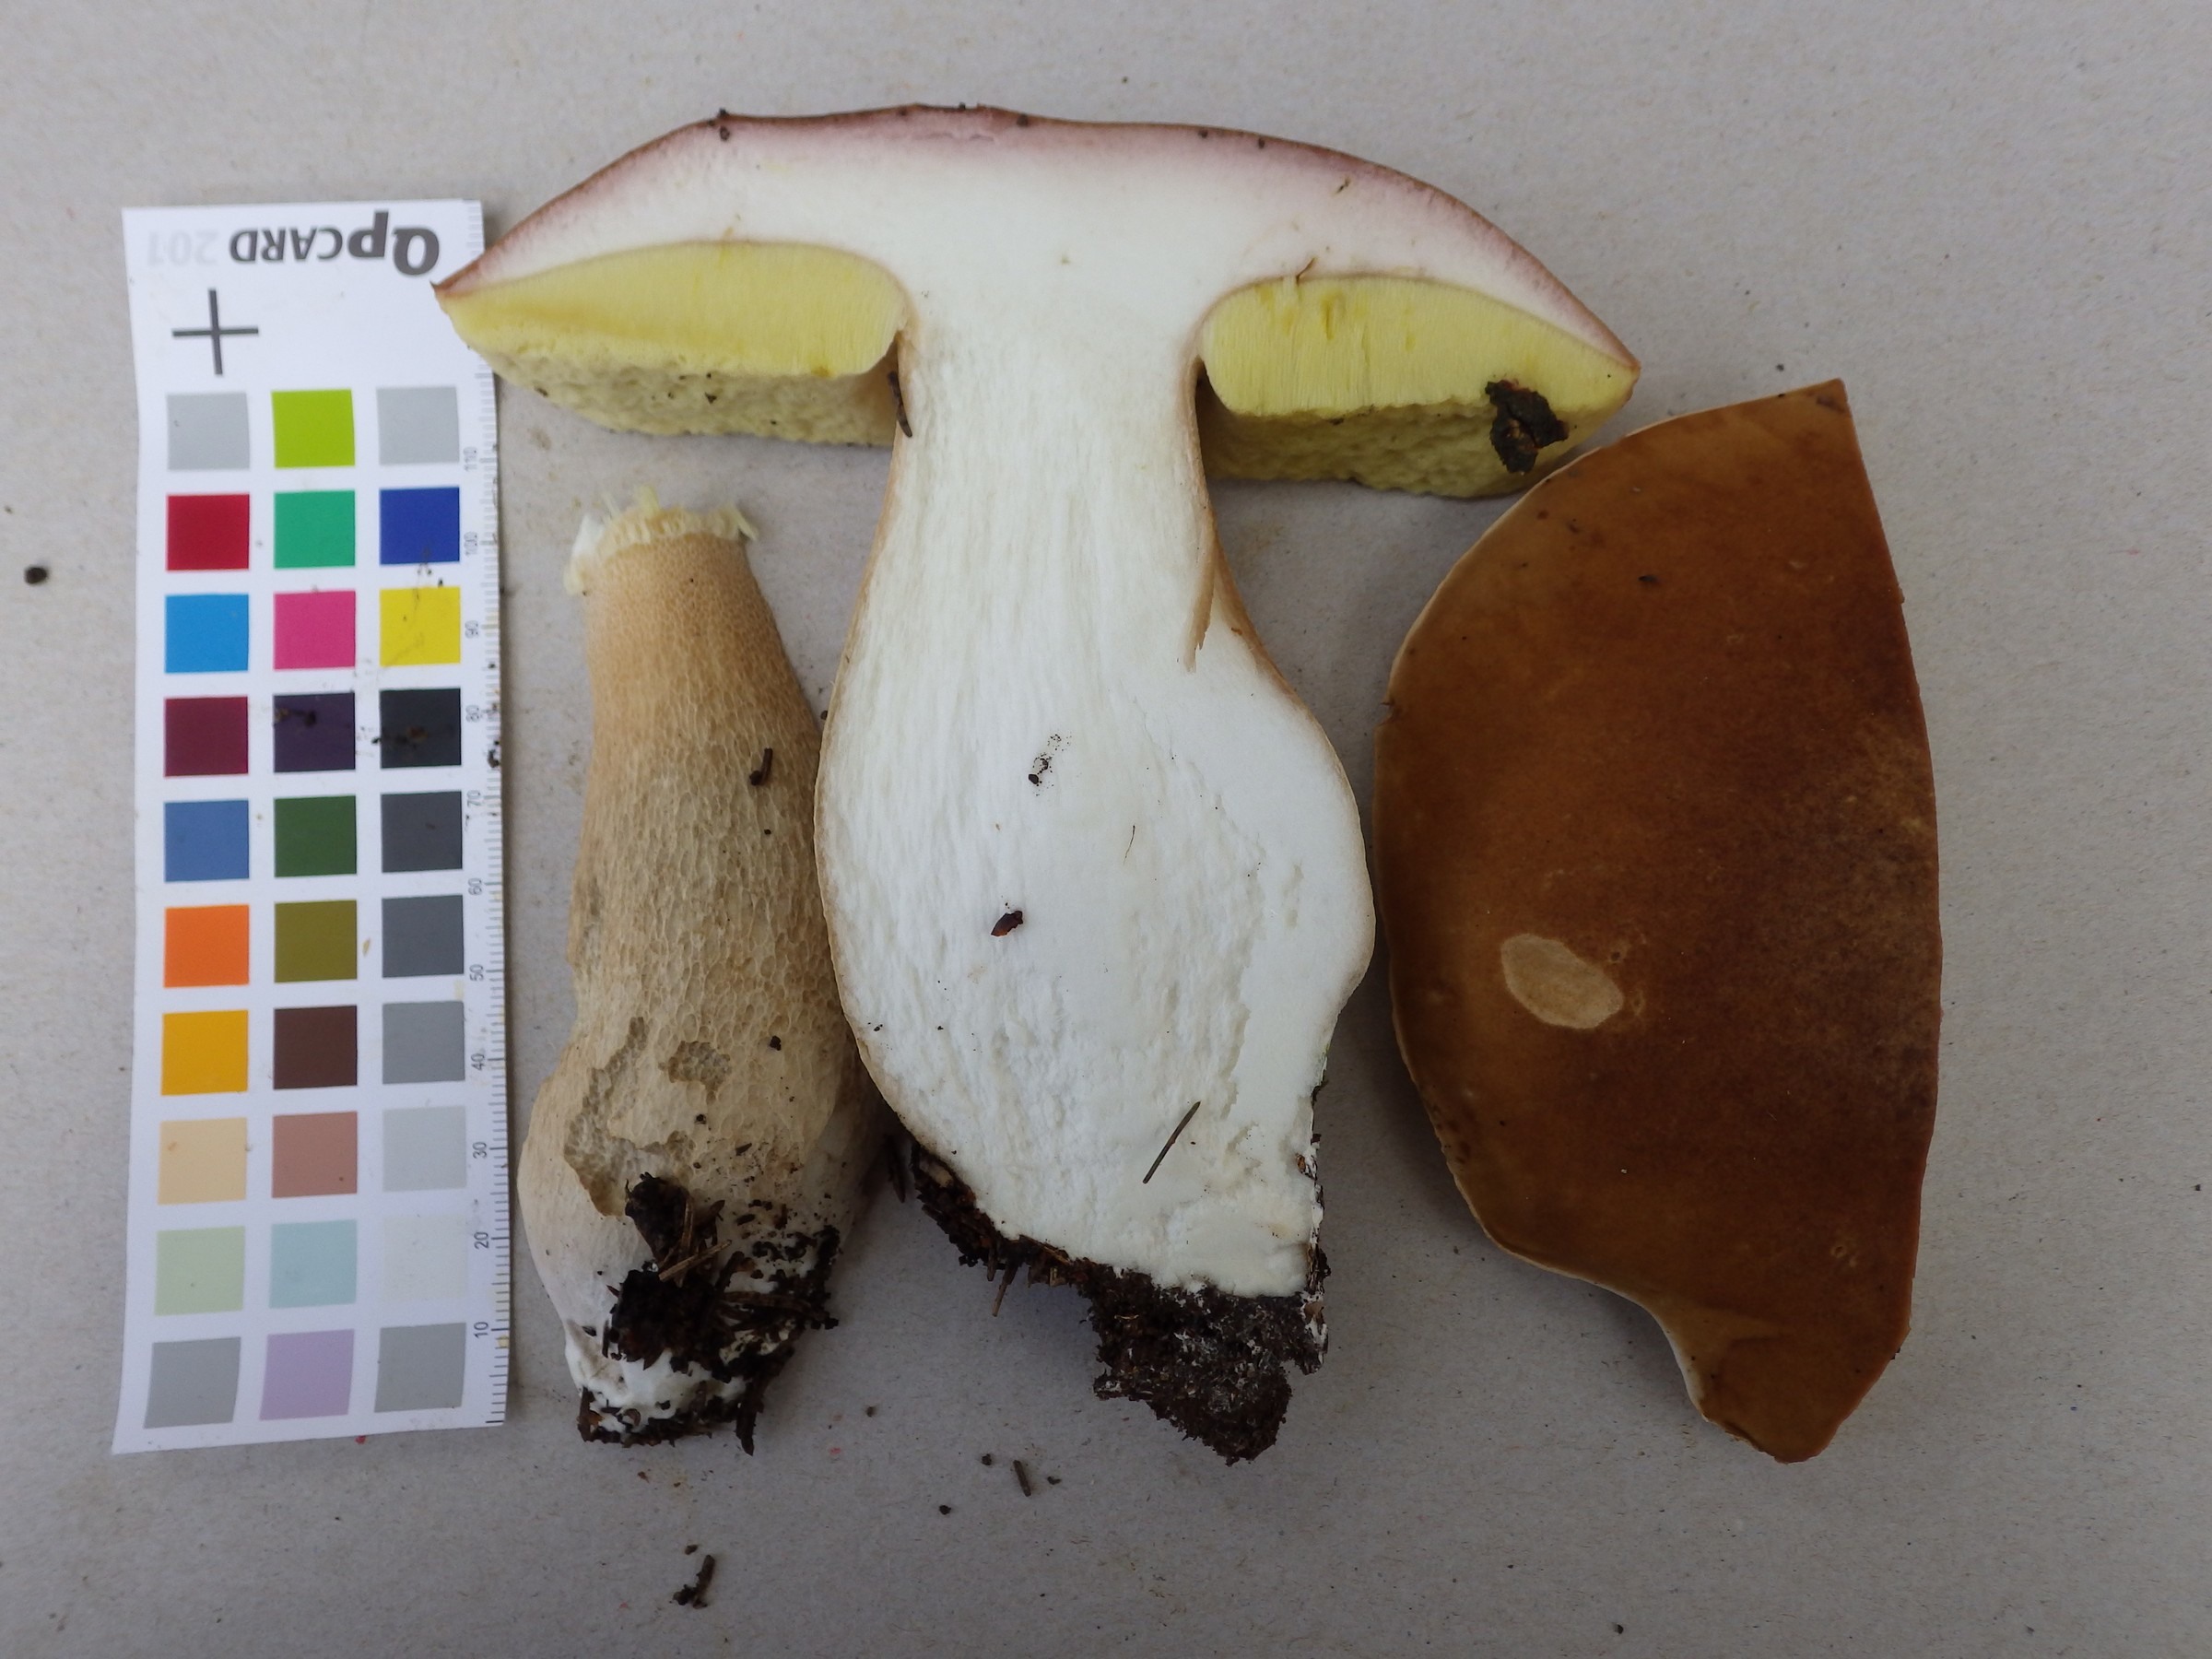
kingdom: Fungi
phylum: Basidiomycota
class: Agaricomycetes
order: Boletales
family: Boletaceae
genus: Boletus
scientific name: Boletus edulis
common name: Cep
